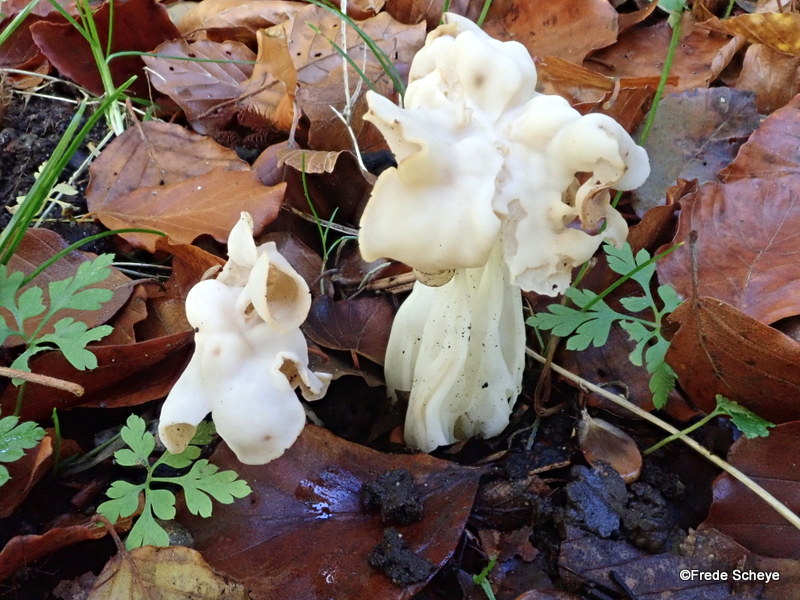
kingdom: Fungi
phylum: Ascomycota
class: Pezizomycetes
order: Pezizales
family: Helvellaceae
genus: Helvella
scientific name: Helvella crispa
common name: kruset foldhat
